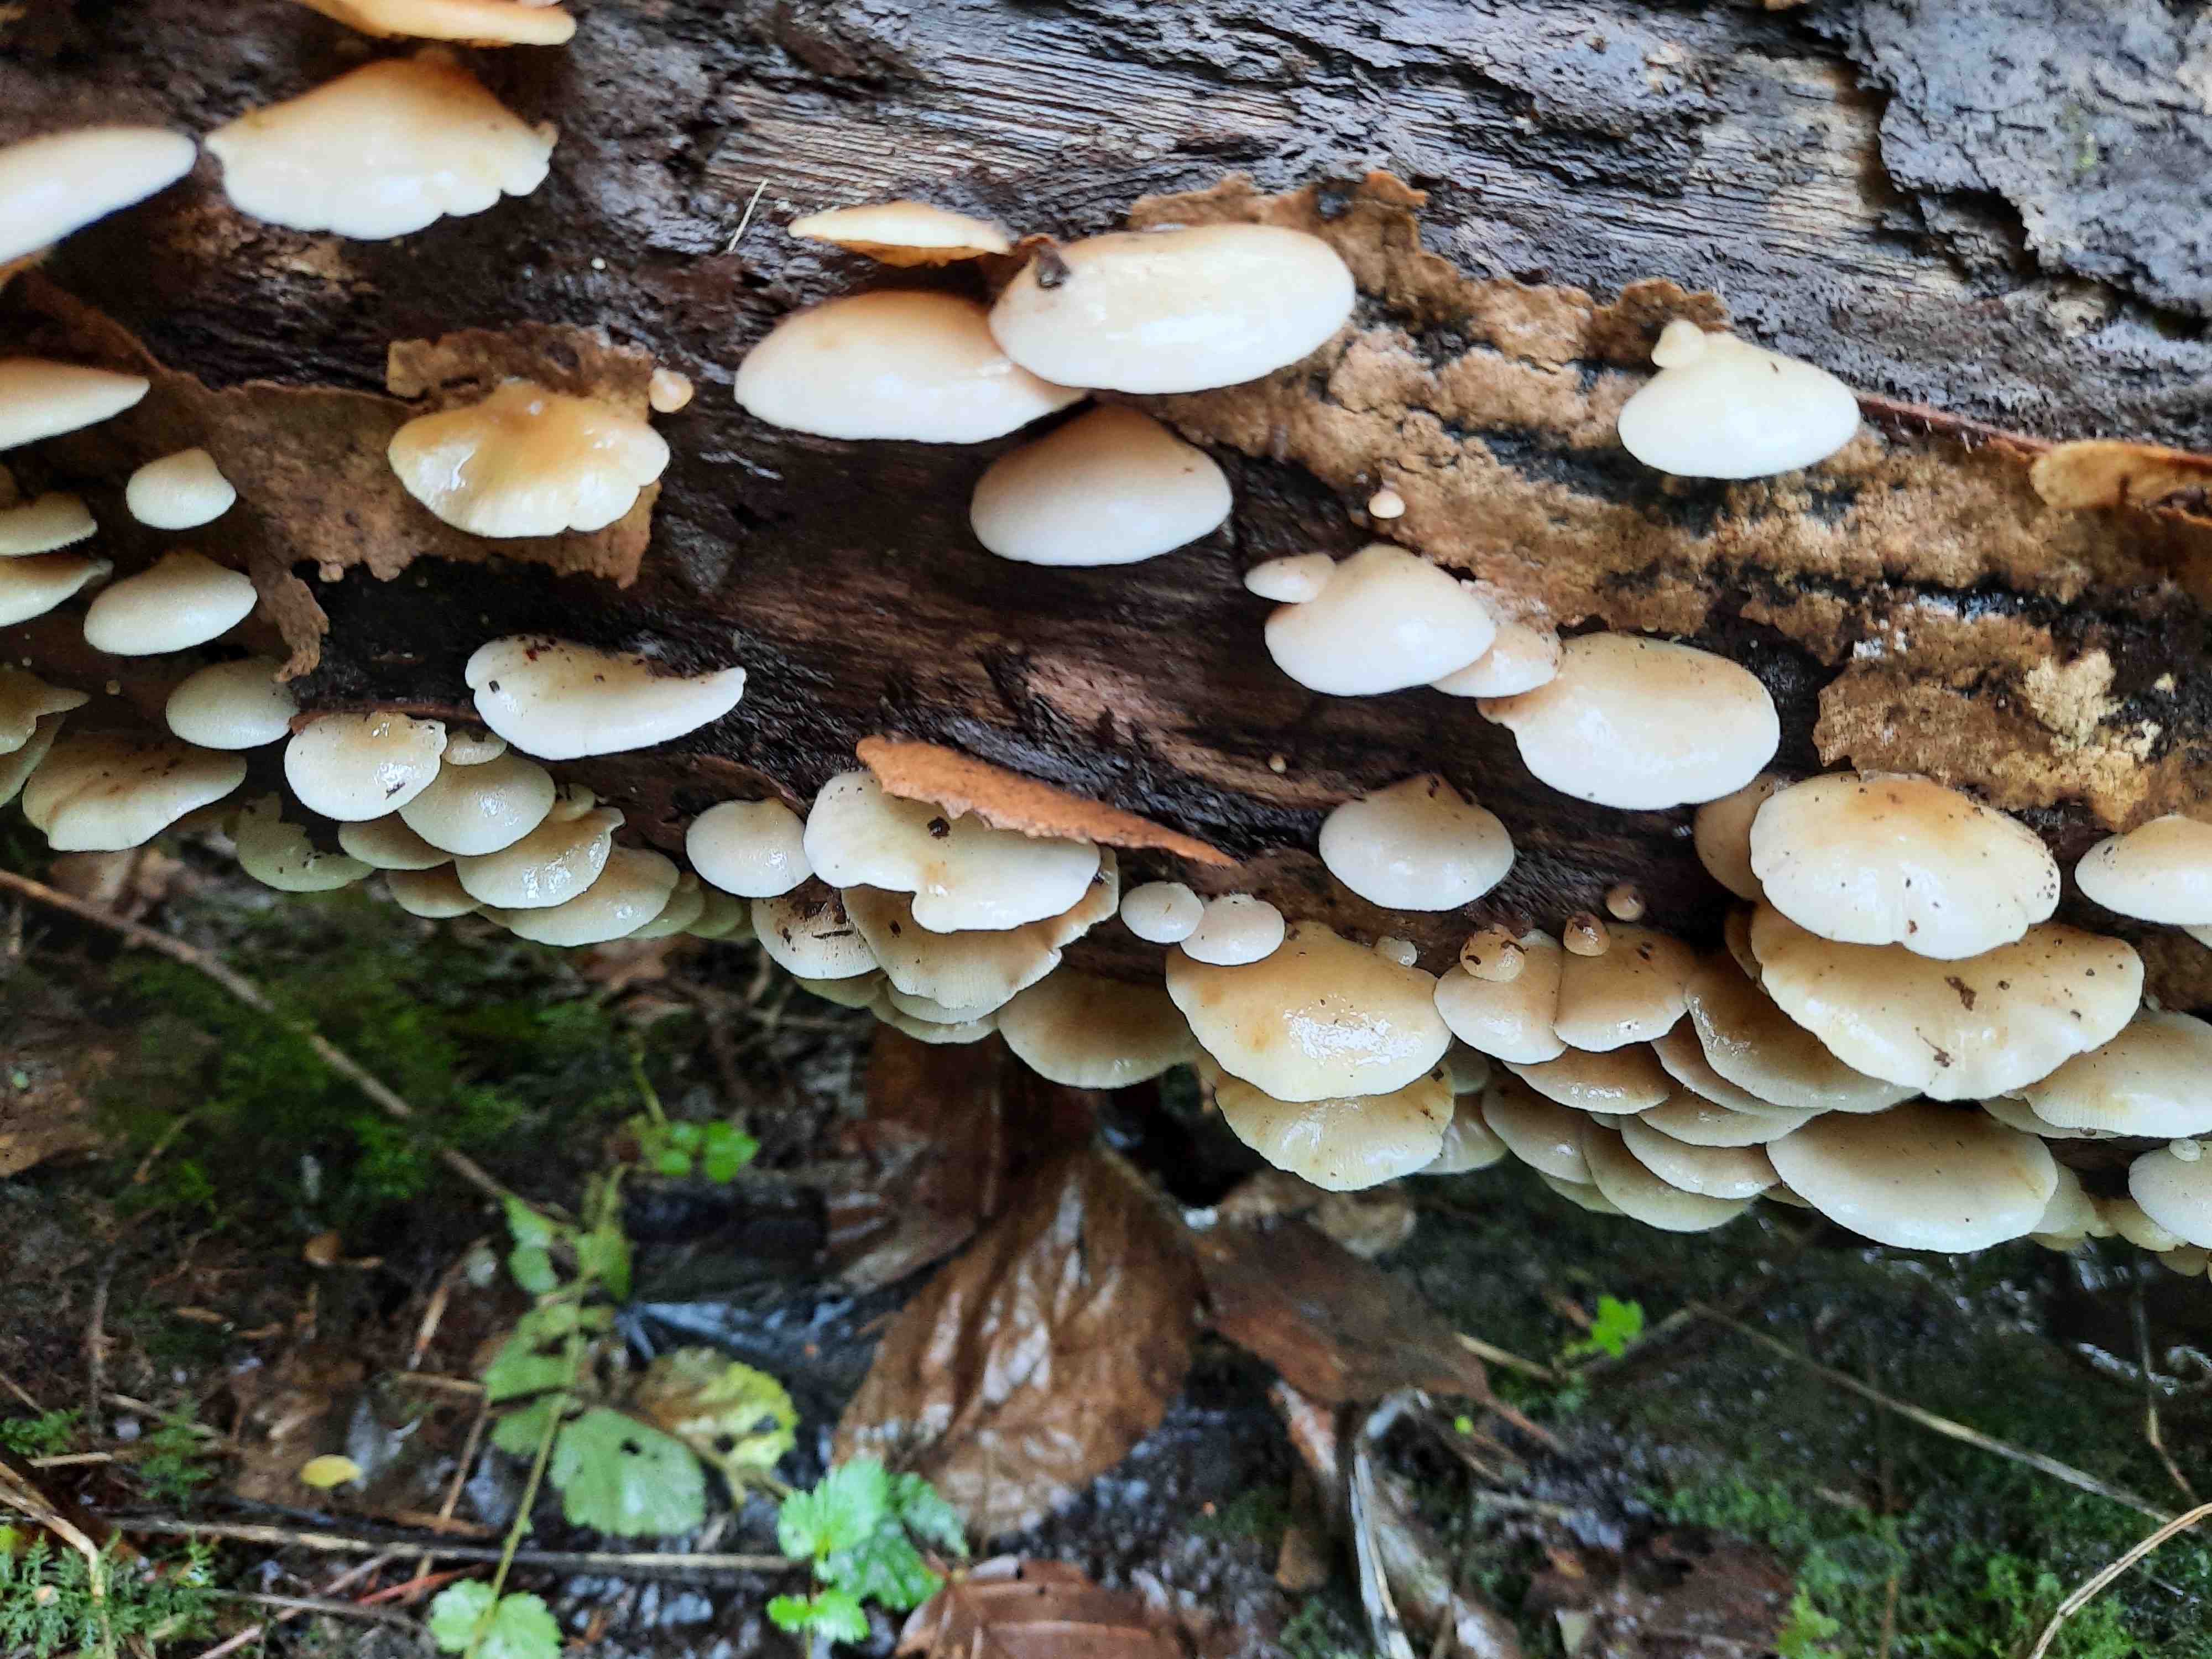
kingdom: Fungi
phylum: Basidiomycota
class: Agaricomycetes
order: Agaricales
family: Crepidotaceae
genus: Crepidotus
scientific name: Crepidotus mollis
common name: blød muslingesvamp
